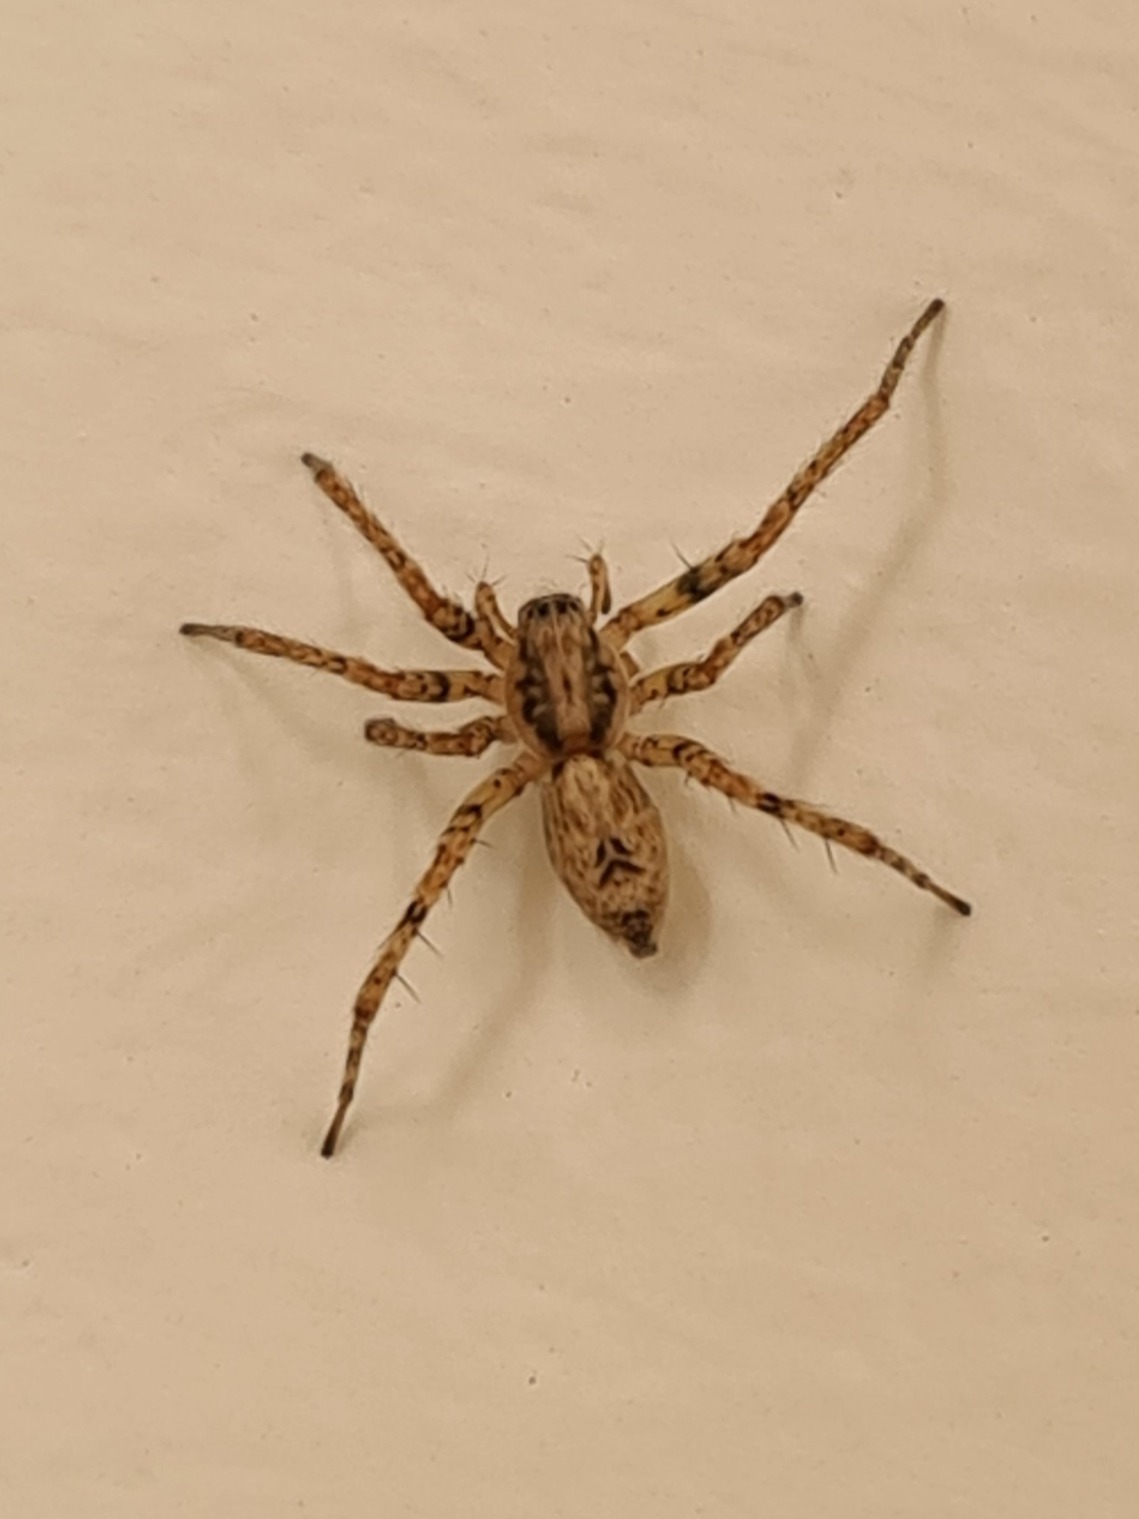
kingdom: Animalia
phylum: Arthropoda
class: Arachnida
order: Araneae
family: Anyphaenidae
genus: Anyphaena
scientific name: Anyphaena accentuata
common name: Summeedderkop
